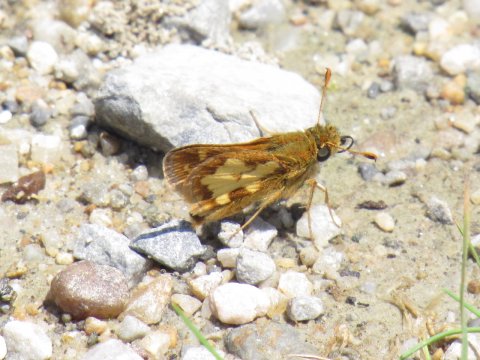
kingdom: Animalia
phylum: Arthropoda
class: Insecta
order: Lepidoptera
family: Hesperiidae
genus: Polites
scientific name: Polites coras
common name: Peck's Skipper
